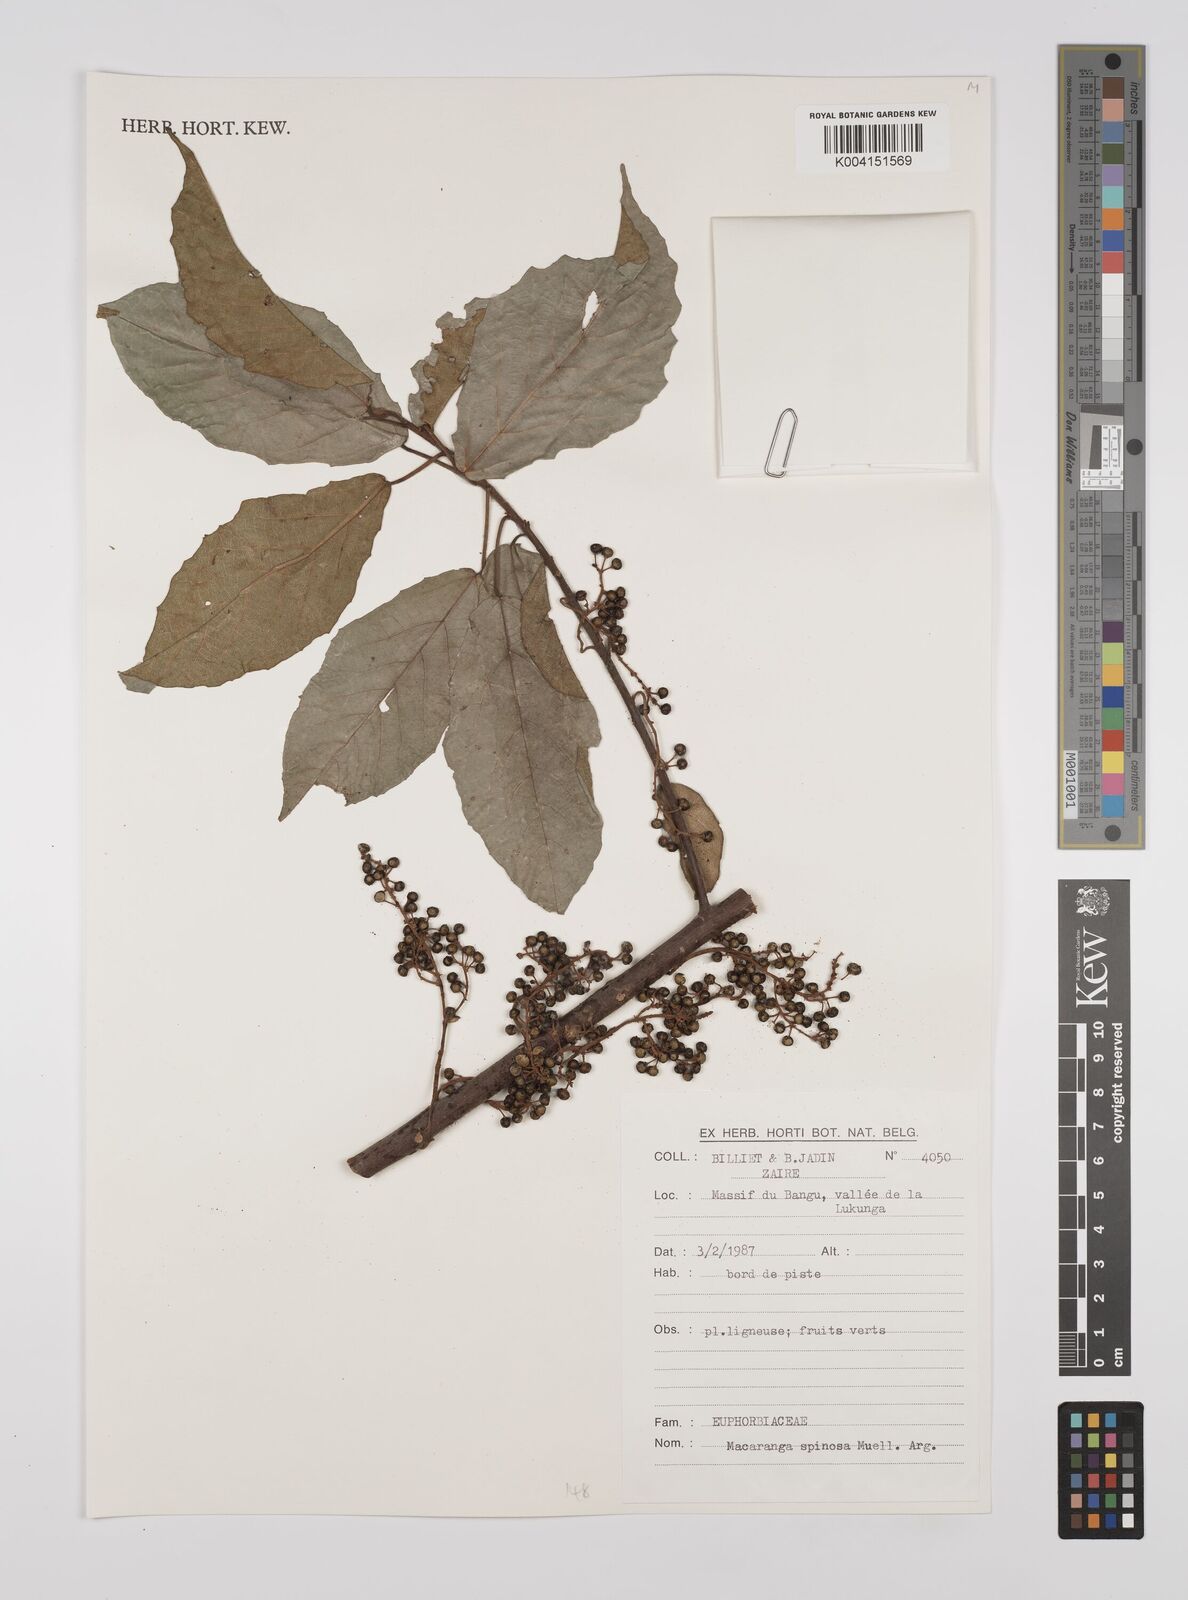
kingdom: Plantae
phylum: Tracheophyta
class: Magnoliopsida
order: Malpighiales
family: Euphorbiaceae
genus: Macaranga
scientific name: Macaranga spinosa
